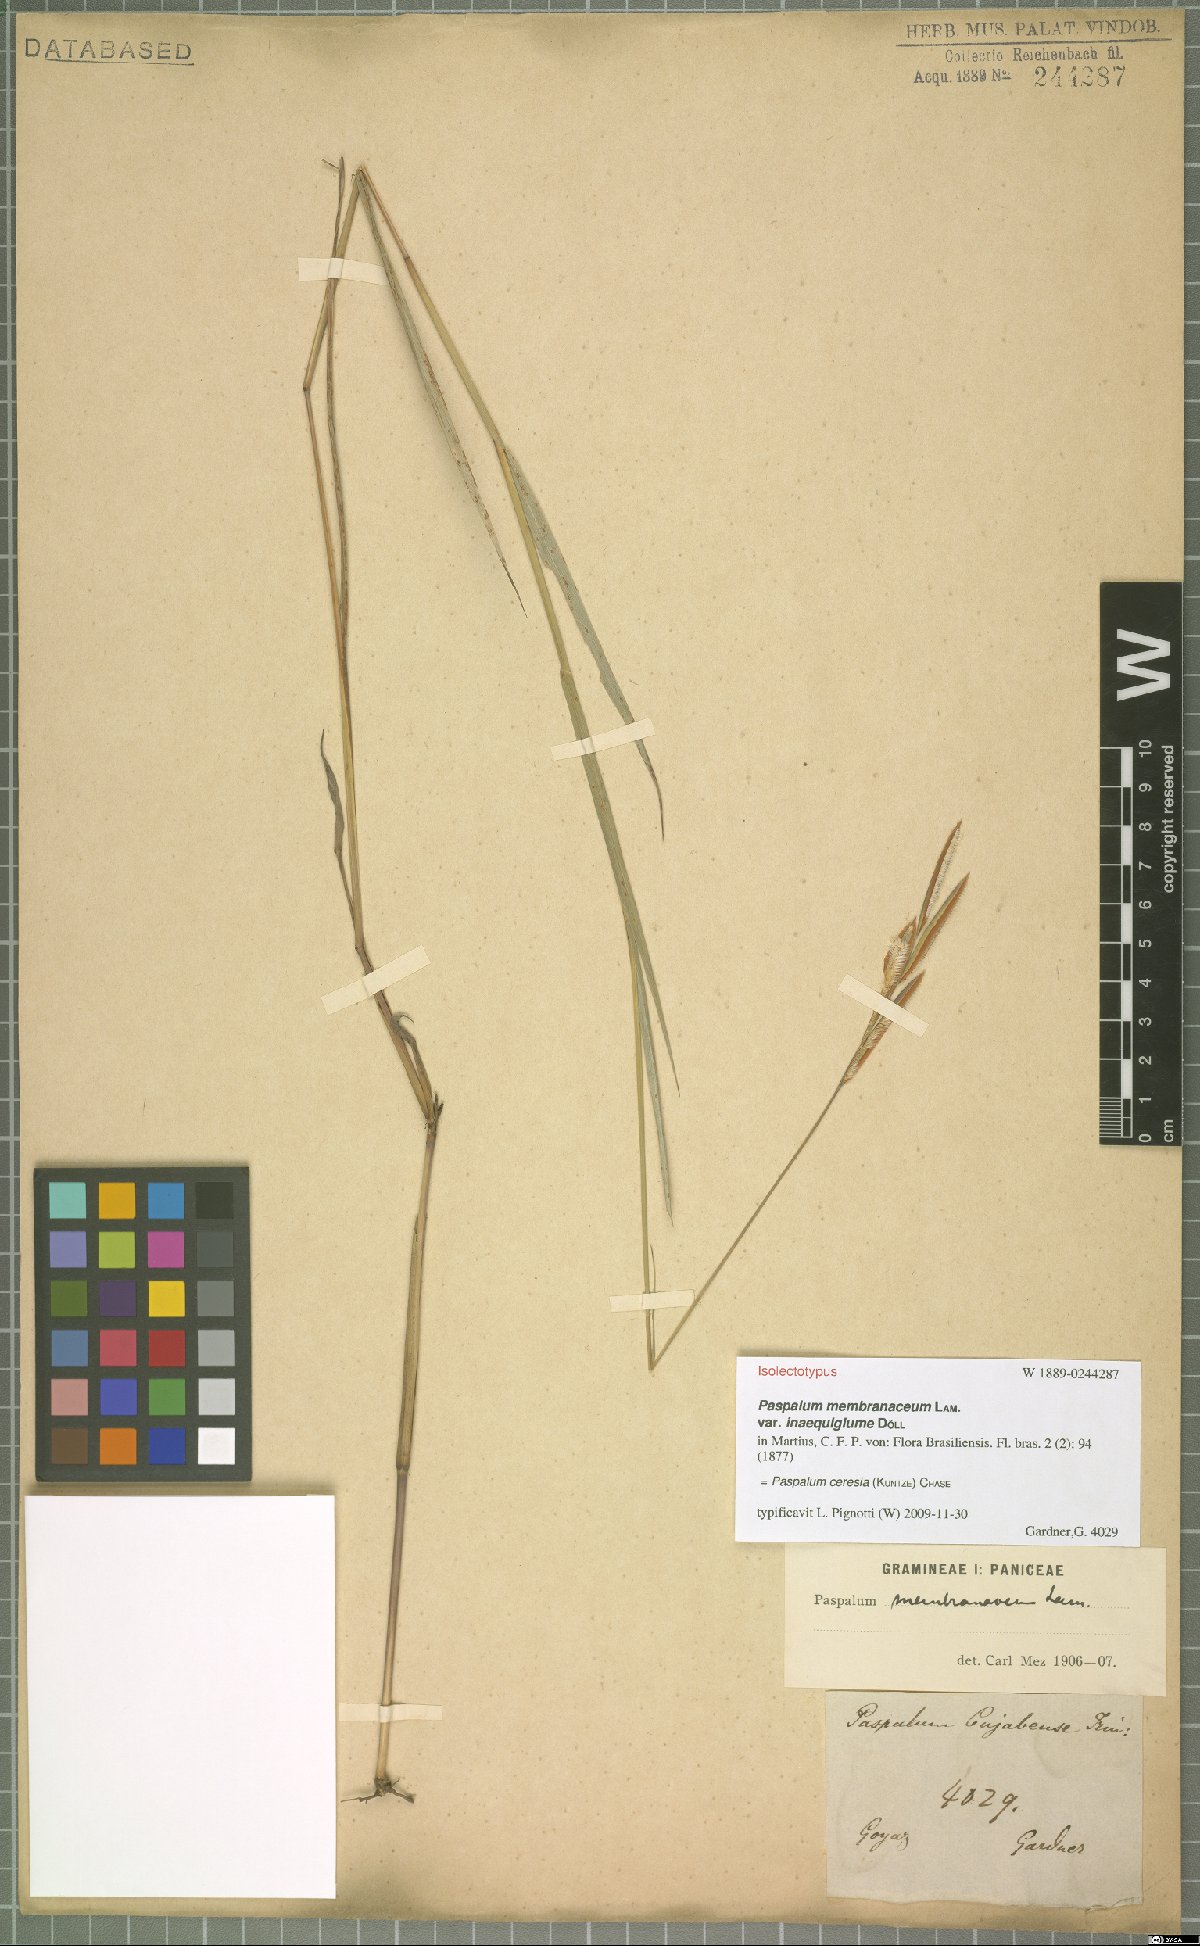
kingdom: Plantae
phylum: Tracheophyta
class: Liliopsida
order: Poales
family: Poaceae
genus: Paspalum
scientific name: Paspalum ceresia
